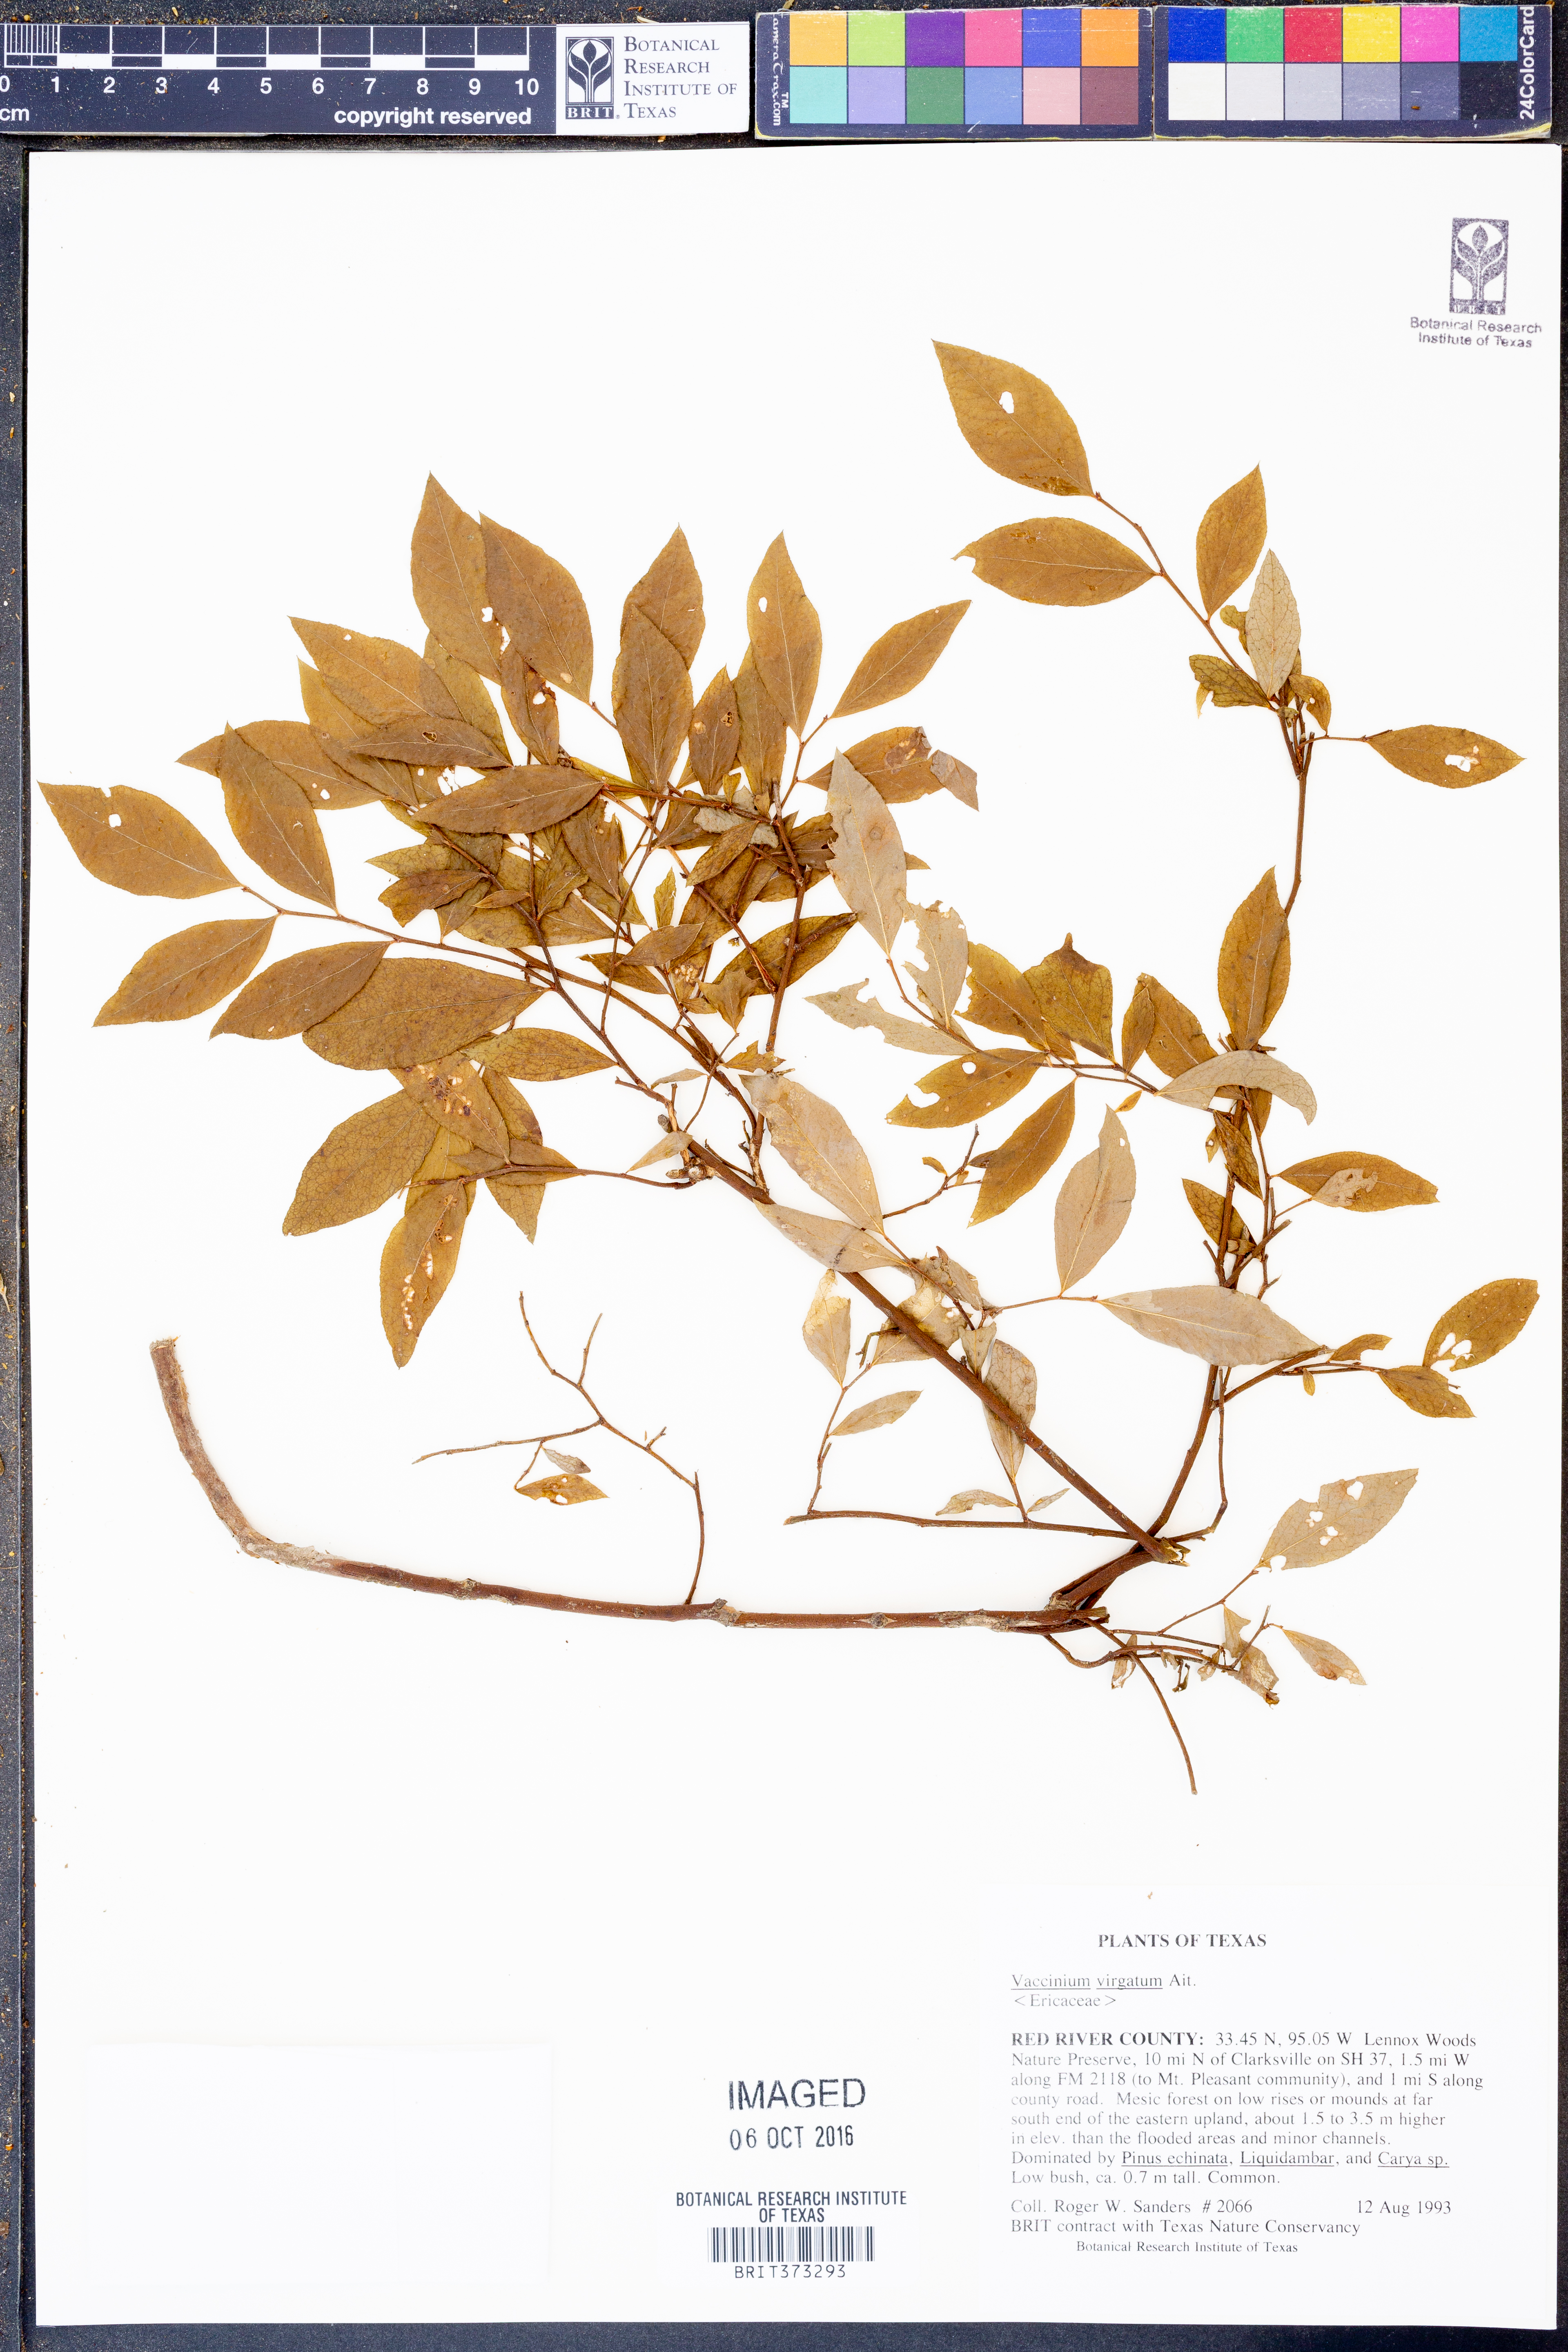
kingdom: Plantae
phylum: Tracheophyta
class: Magnoliopsida
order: Ericales
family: Ericaceae
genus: Vaccinium
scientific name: Vaccinium corymbosum
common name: Blueberry
